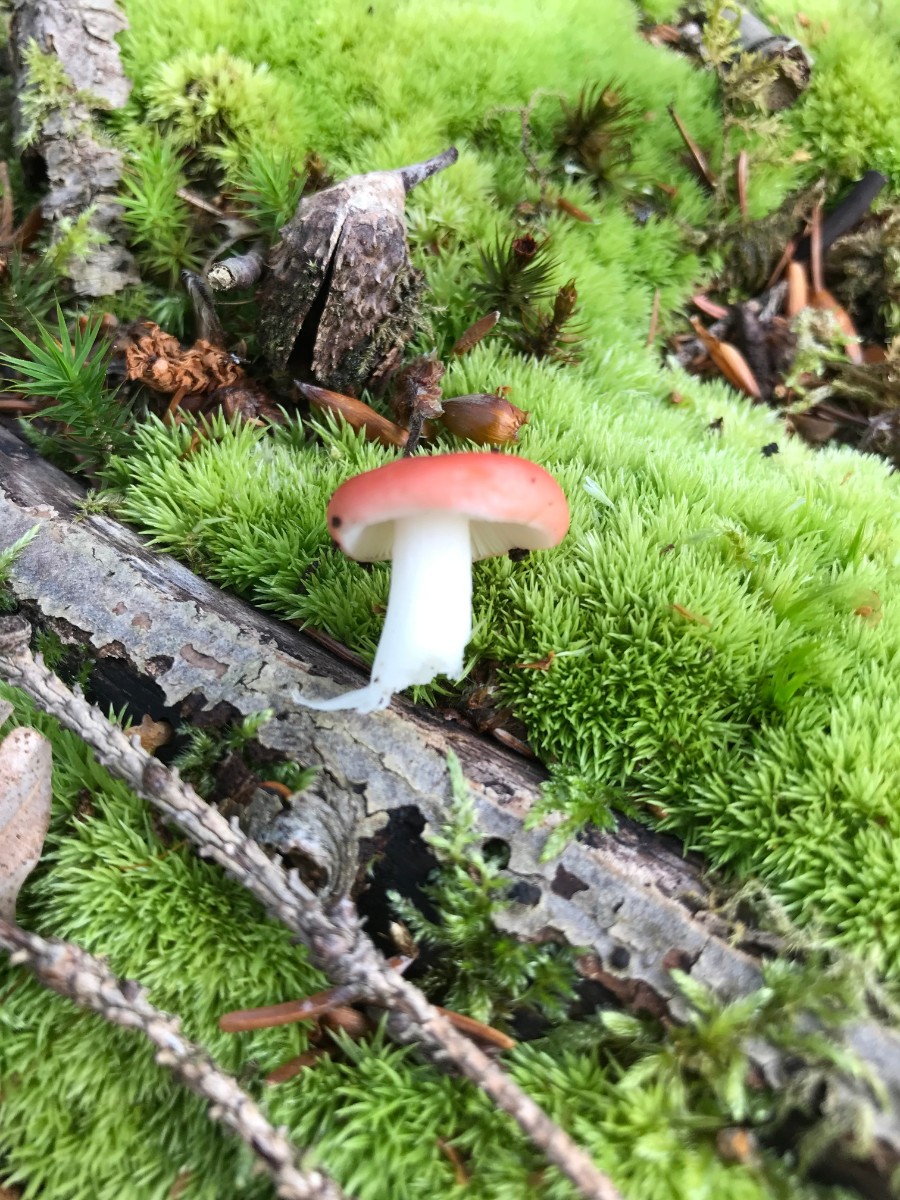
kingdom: Fungi
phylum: Basidiomycota
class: Agaricomycetes
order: Russulales
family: Russulaceae
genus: Russula
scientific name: Russula nobilis
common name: lille gift-skørhat
